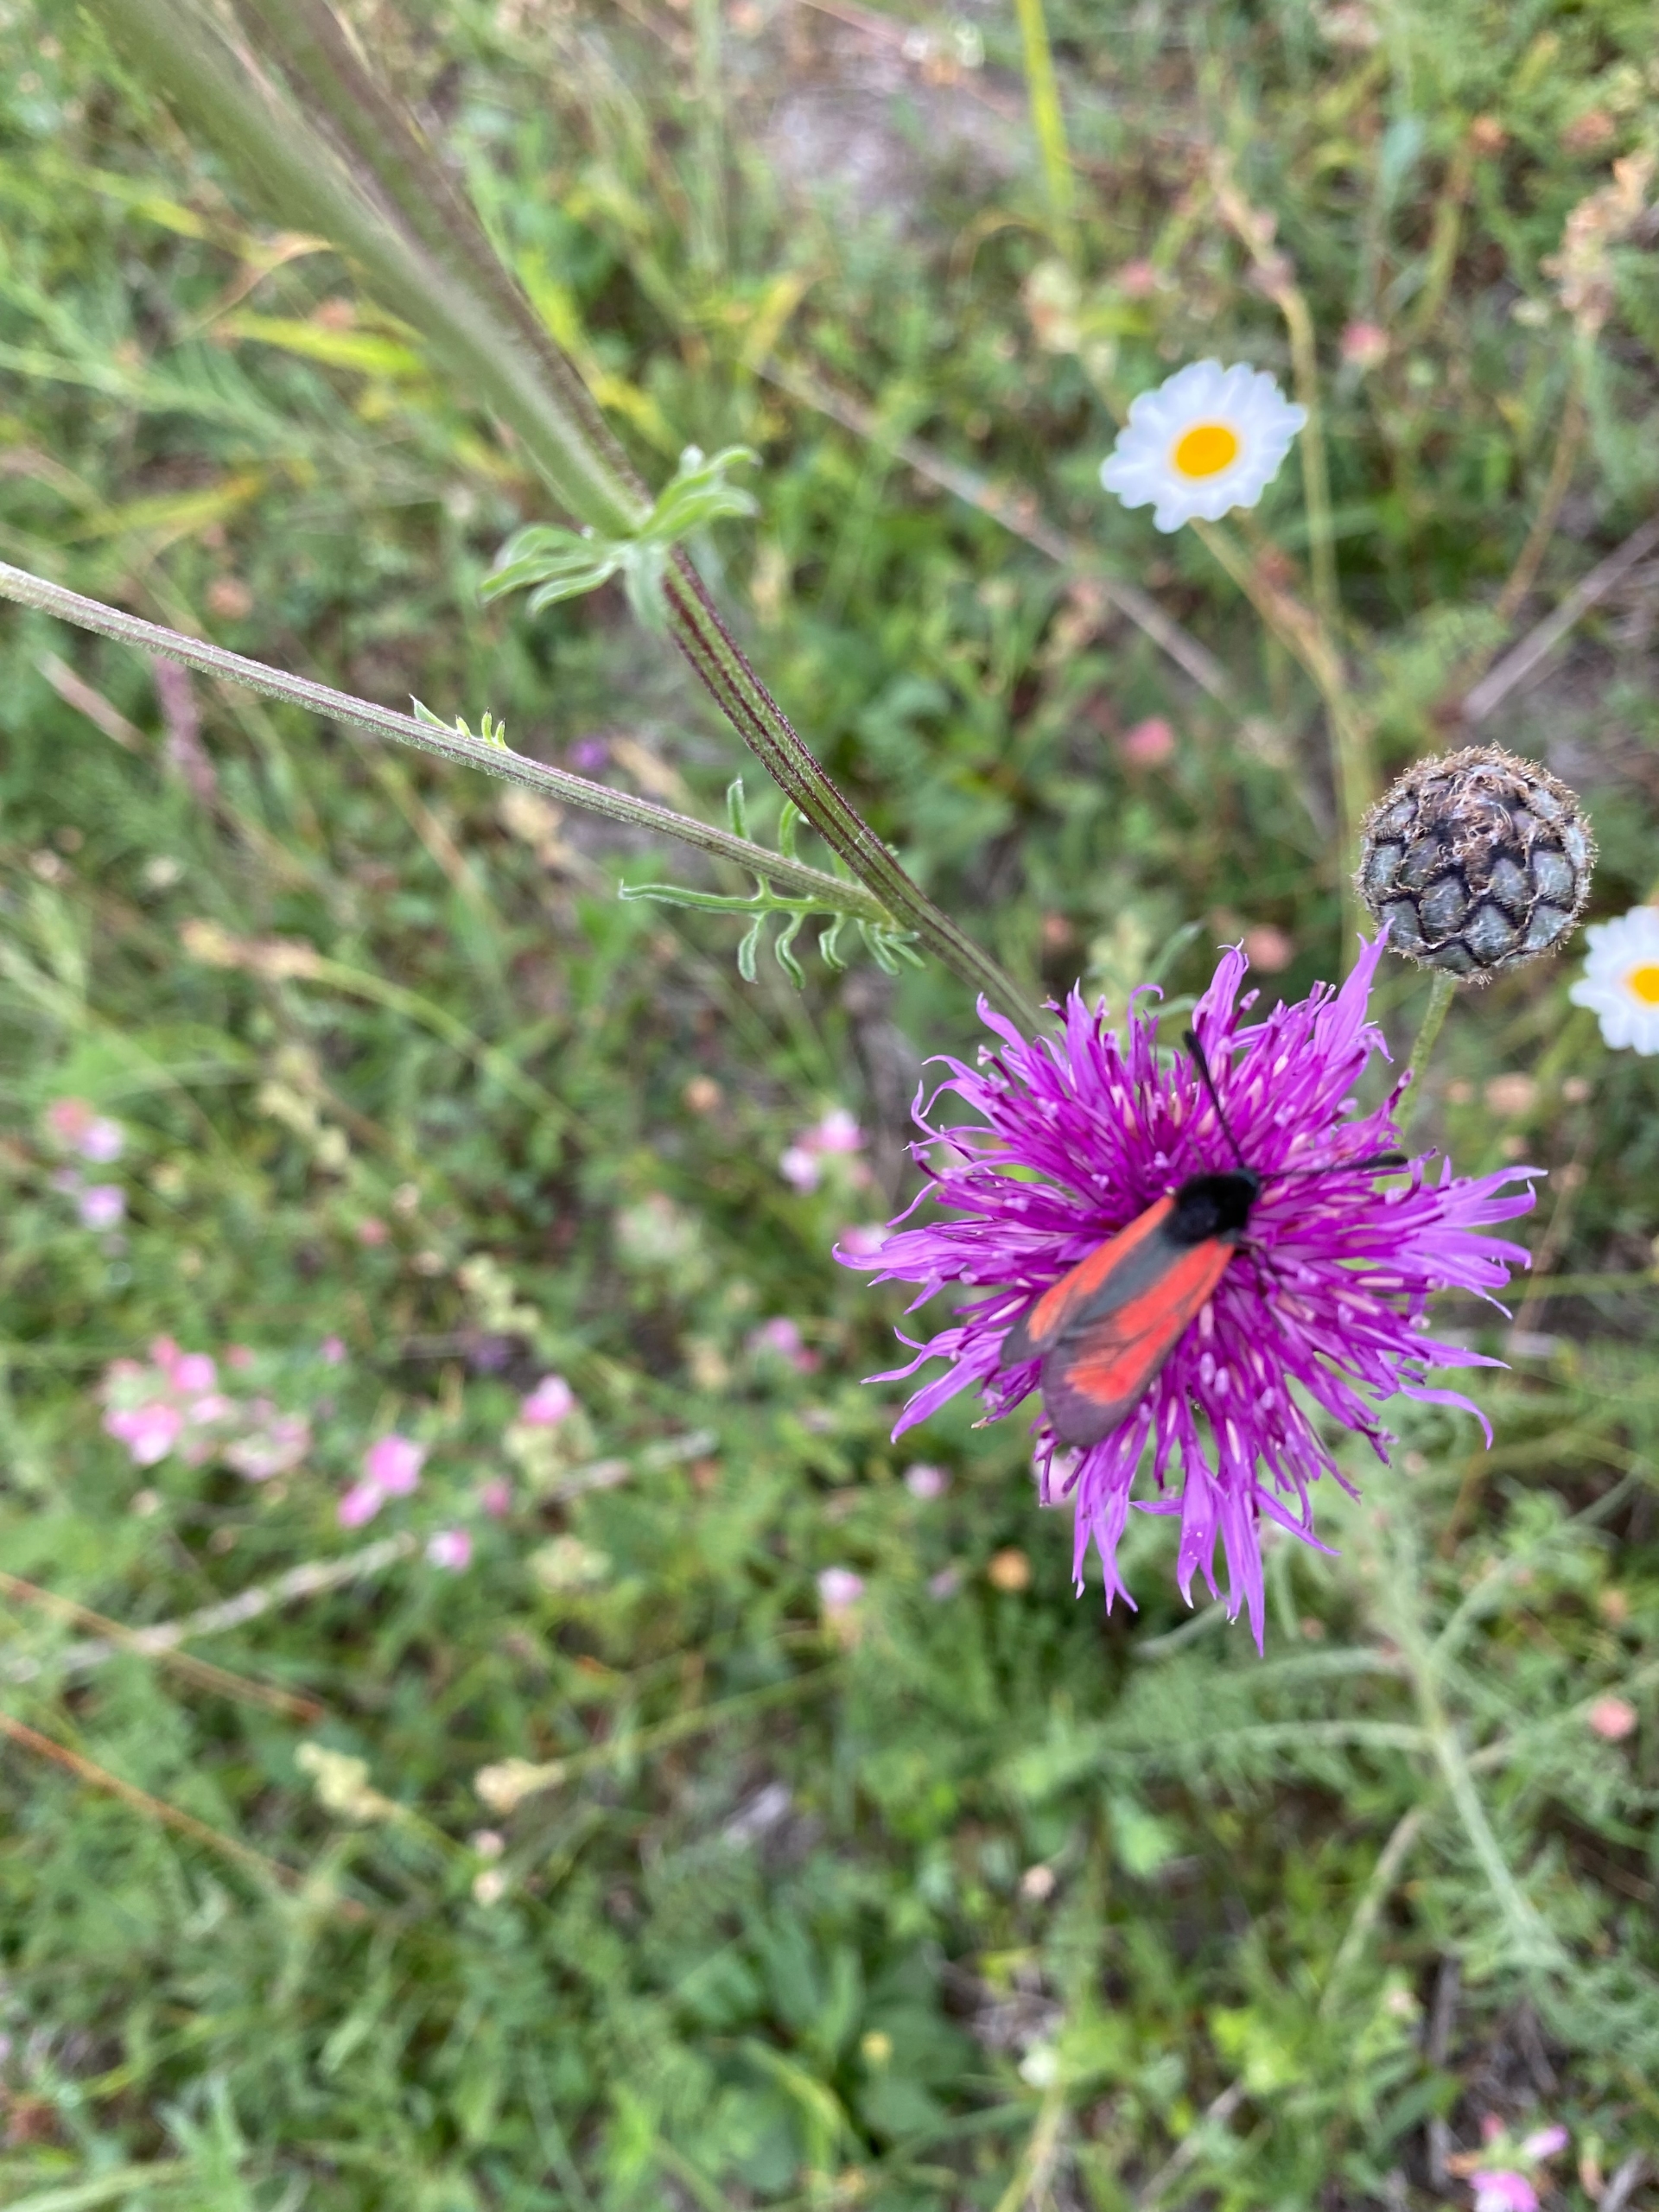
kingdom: Animalia
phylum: Arthropoda
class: Insecta
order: Lepidoptera
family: Zygaenidae
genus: Zygaena
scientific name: Zygaena purpuralis
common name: Timiankøllesværmer
